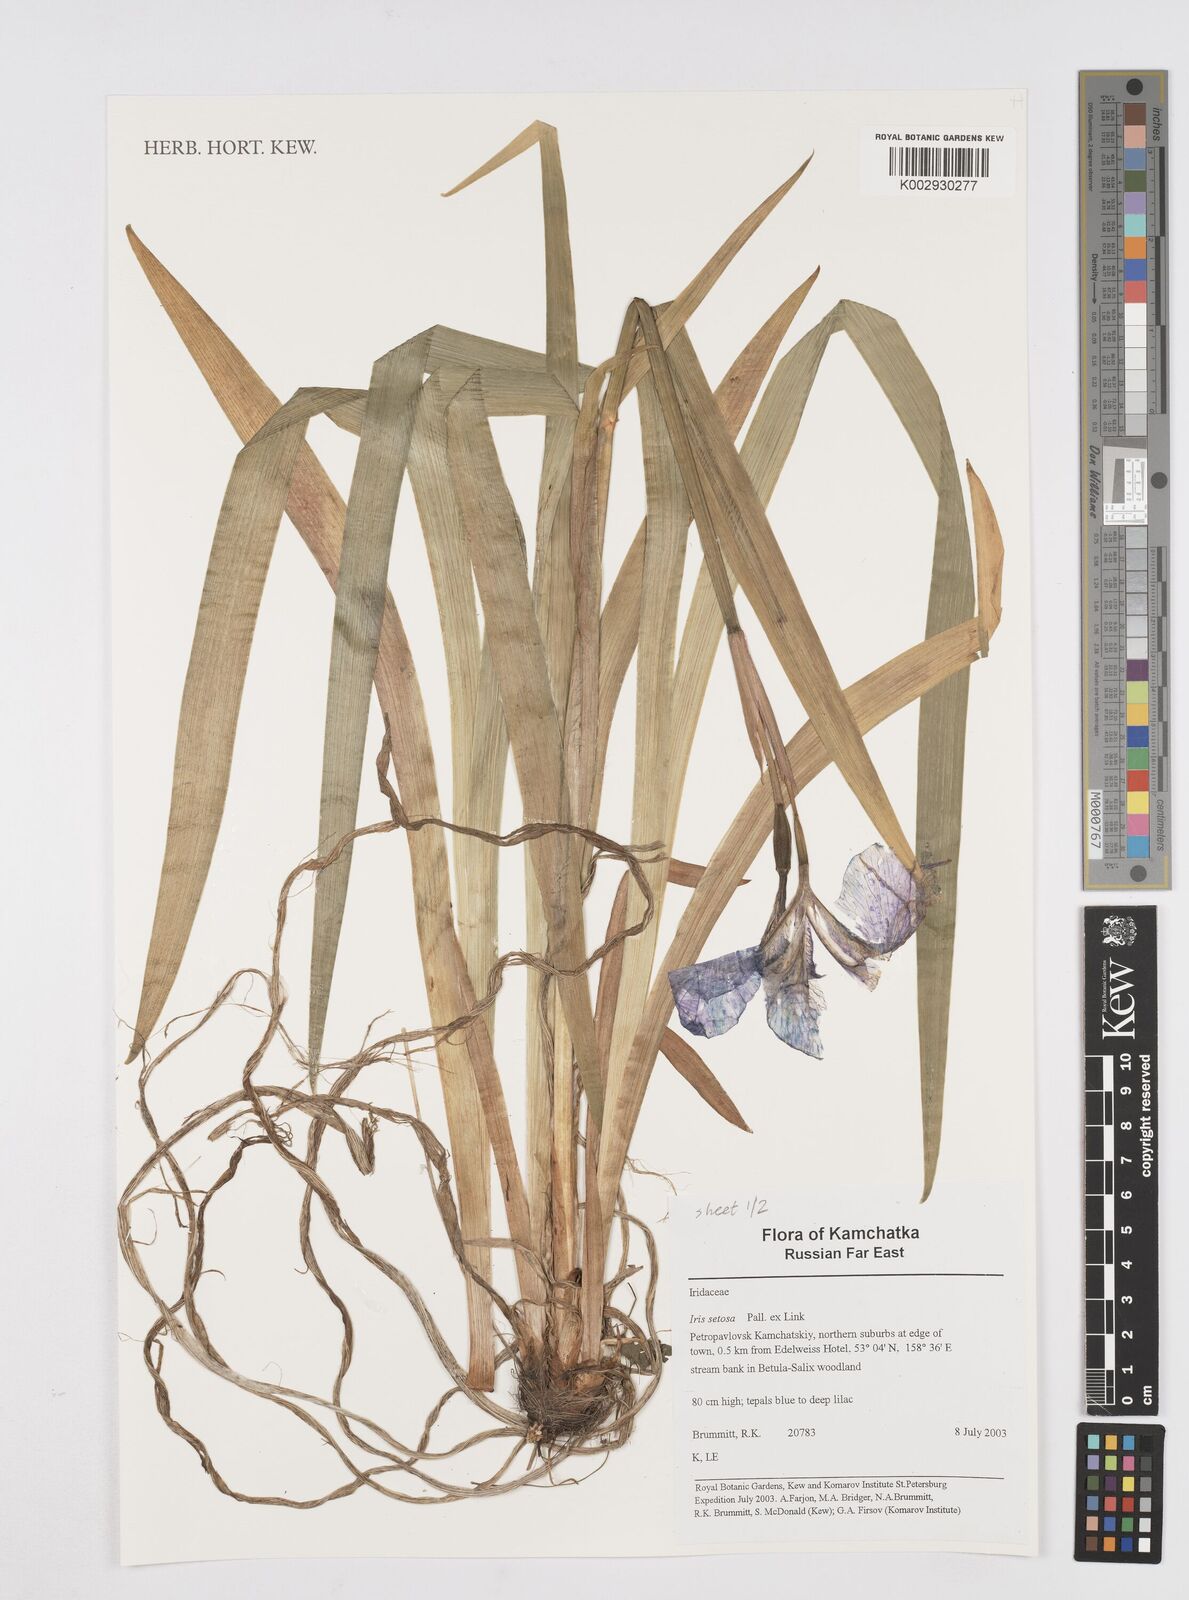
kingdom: Plantae
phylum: Tracheophyta
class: Liliopsida
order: Asparagales
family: Iridaceae
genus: Iris
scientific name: Iris setosa
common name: Arctic blue flag
